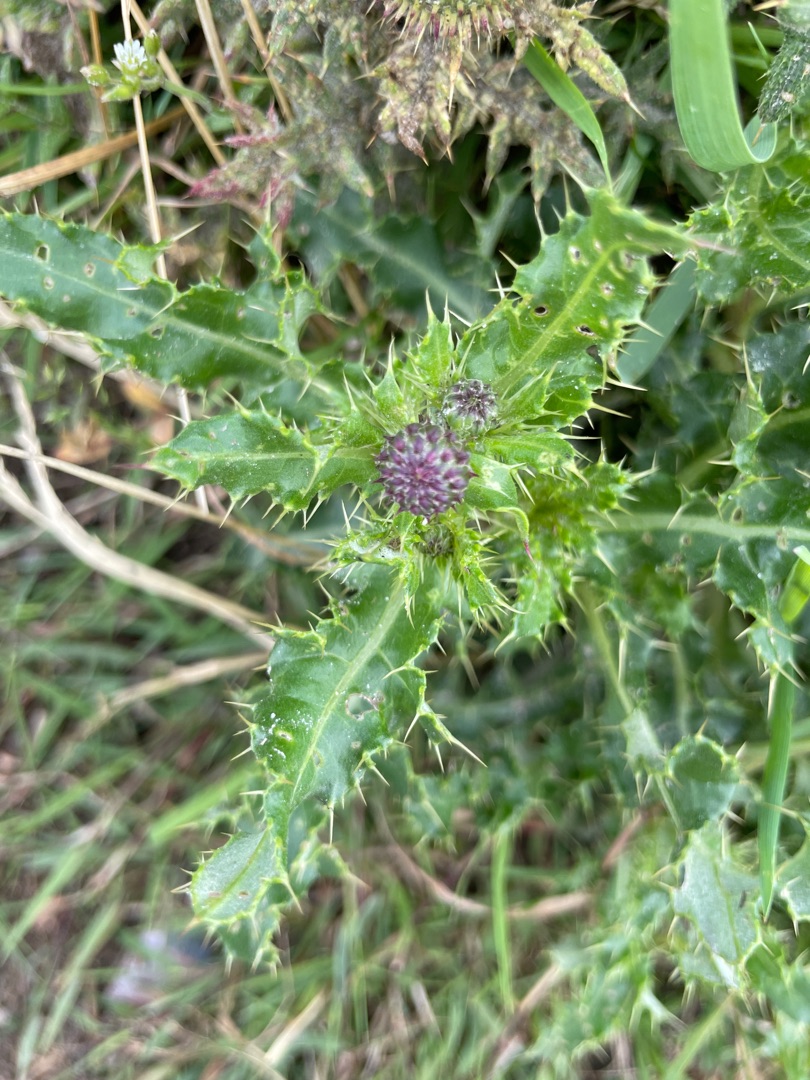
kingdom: Plantae
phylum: Tracheophyta
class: Magnoliopsida
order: Asterales
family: Asteraceae
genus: Cirsium
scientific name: Cirsium arvense
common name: Ager-tidsel
